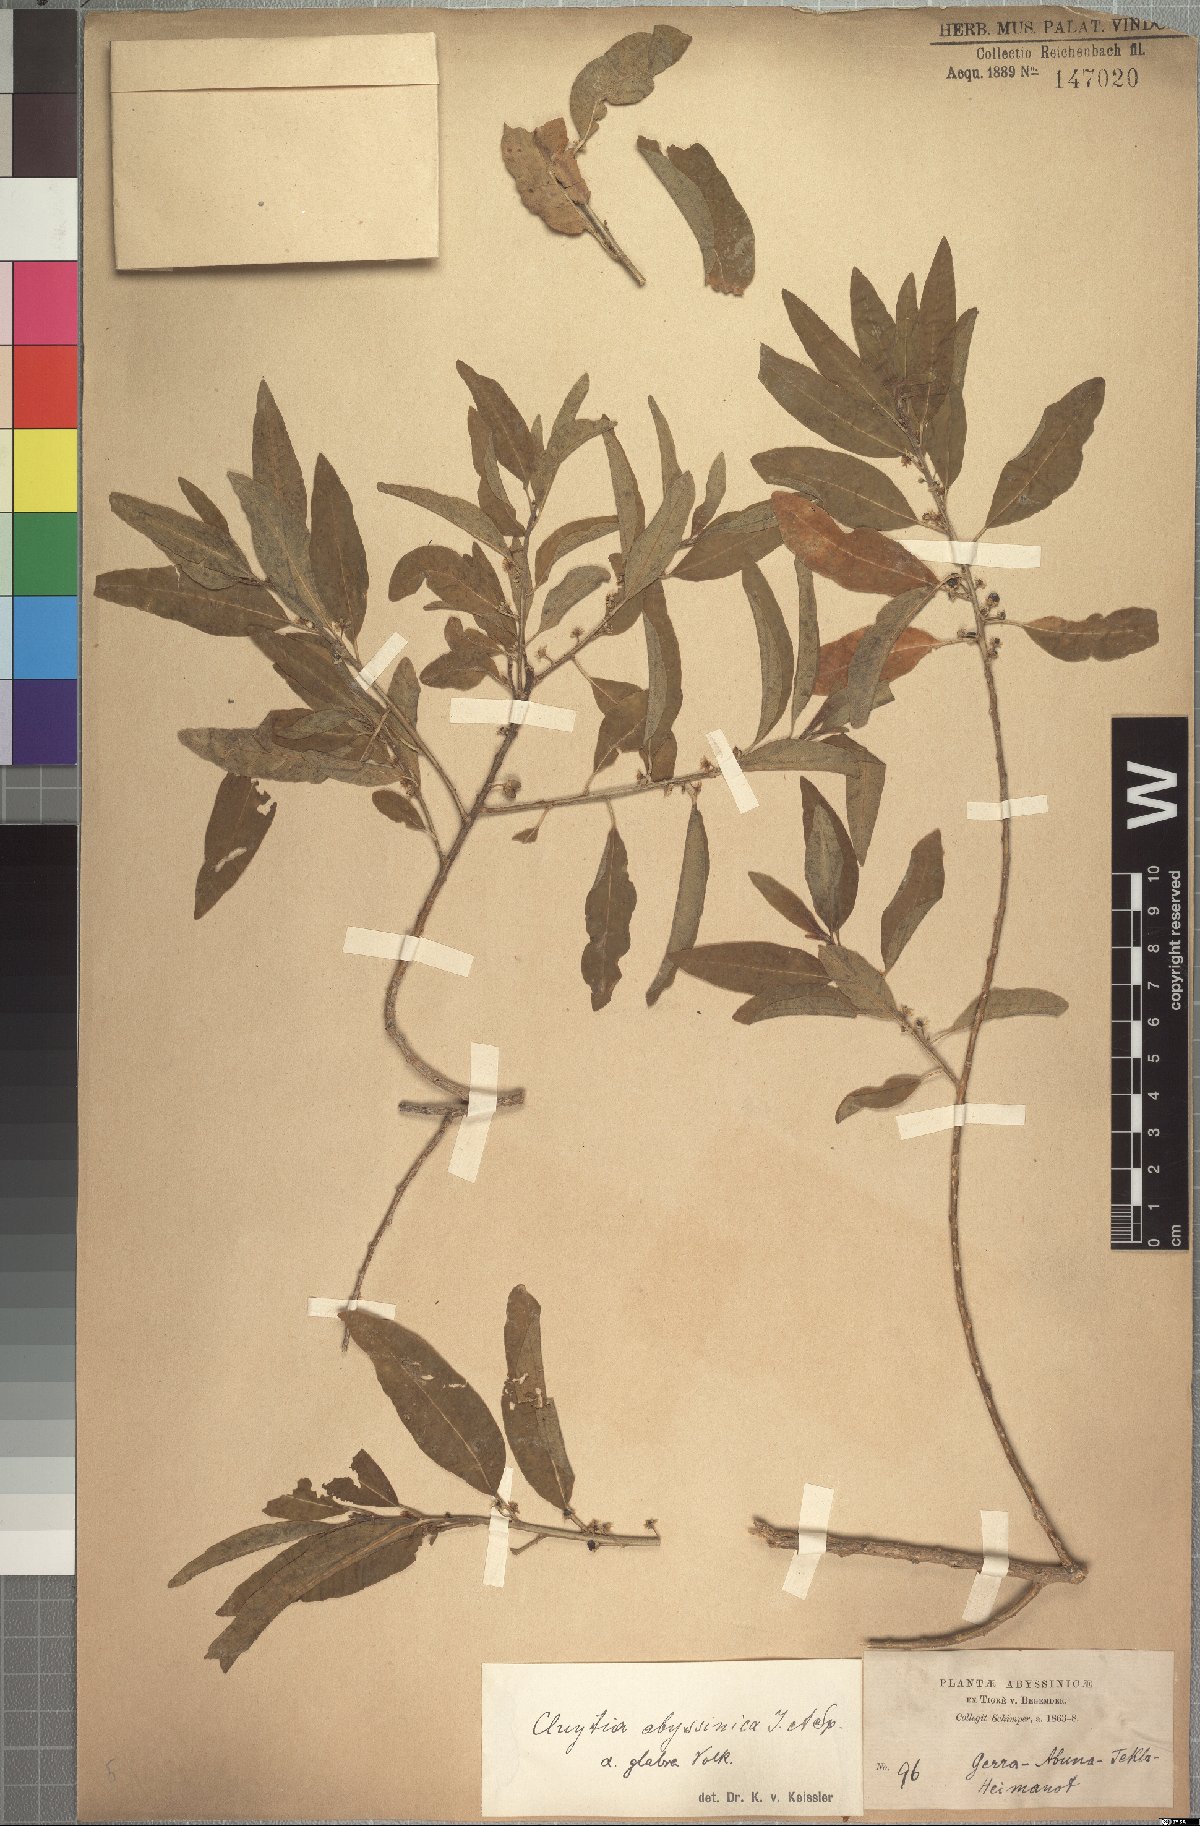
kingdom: Plantae
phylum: Tracheophyta
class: Magnoliopsida
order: Malpighiales
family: Peraceae
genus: Clutia
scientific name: Clutia abyssinica
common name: Large lightning bush
